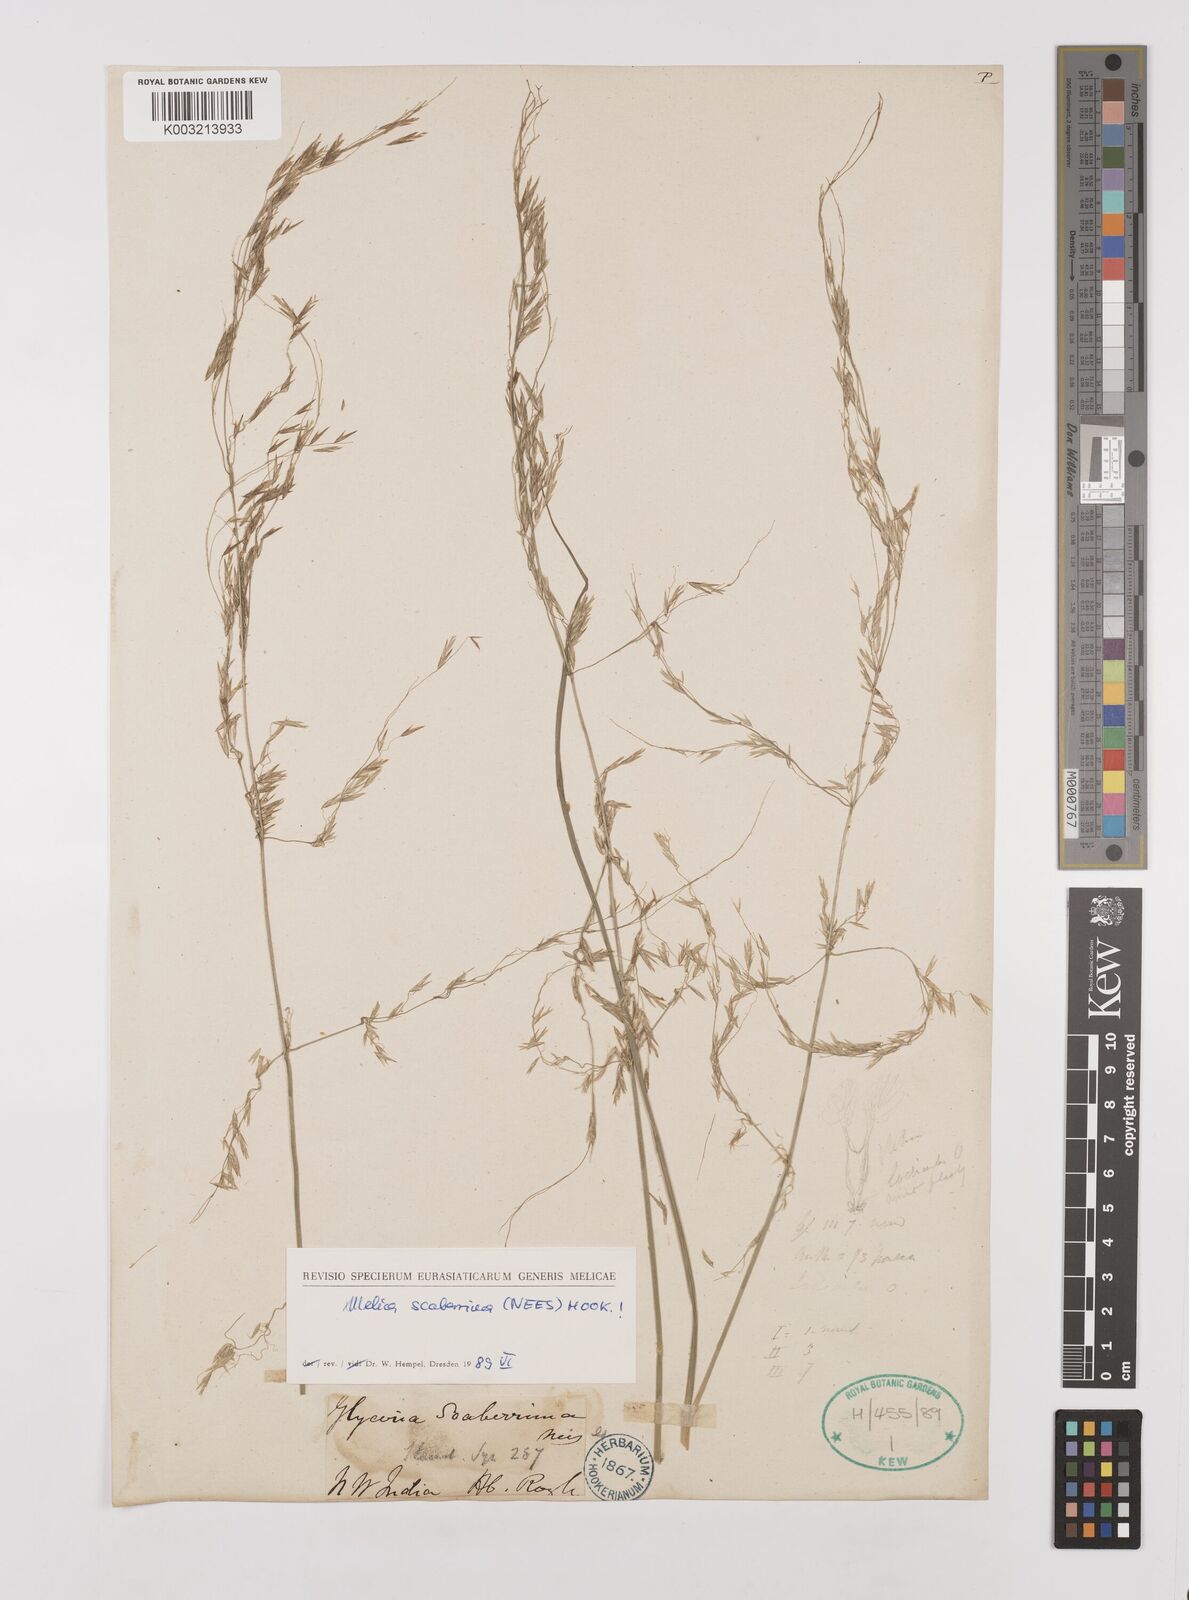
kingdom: Plantae
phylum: Tracheophyta
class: Liliopsida
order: Poales
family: Poaceae
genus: Melica
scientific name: Melica scaberrima
